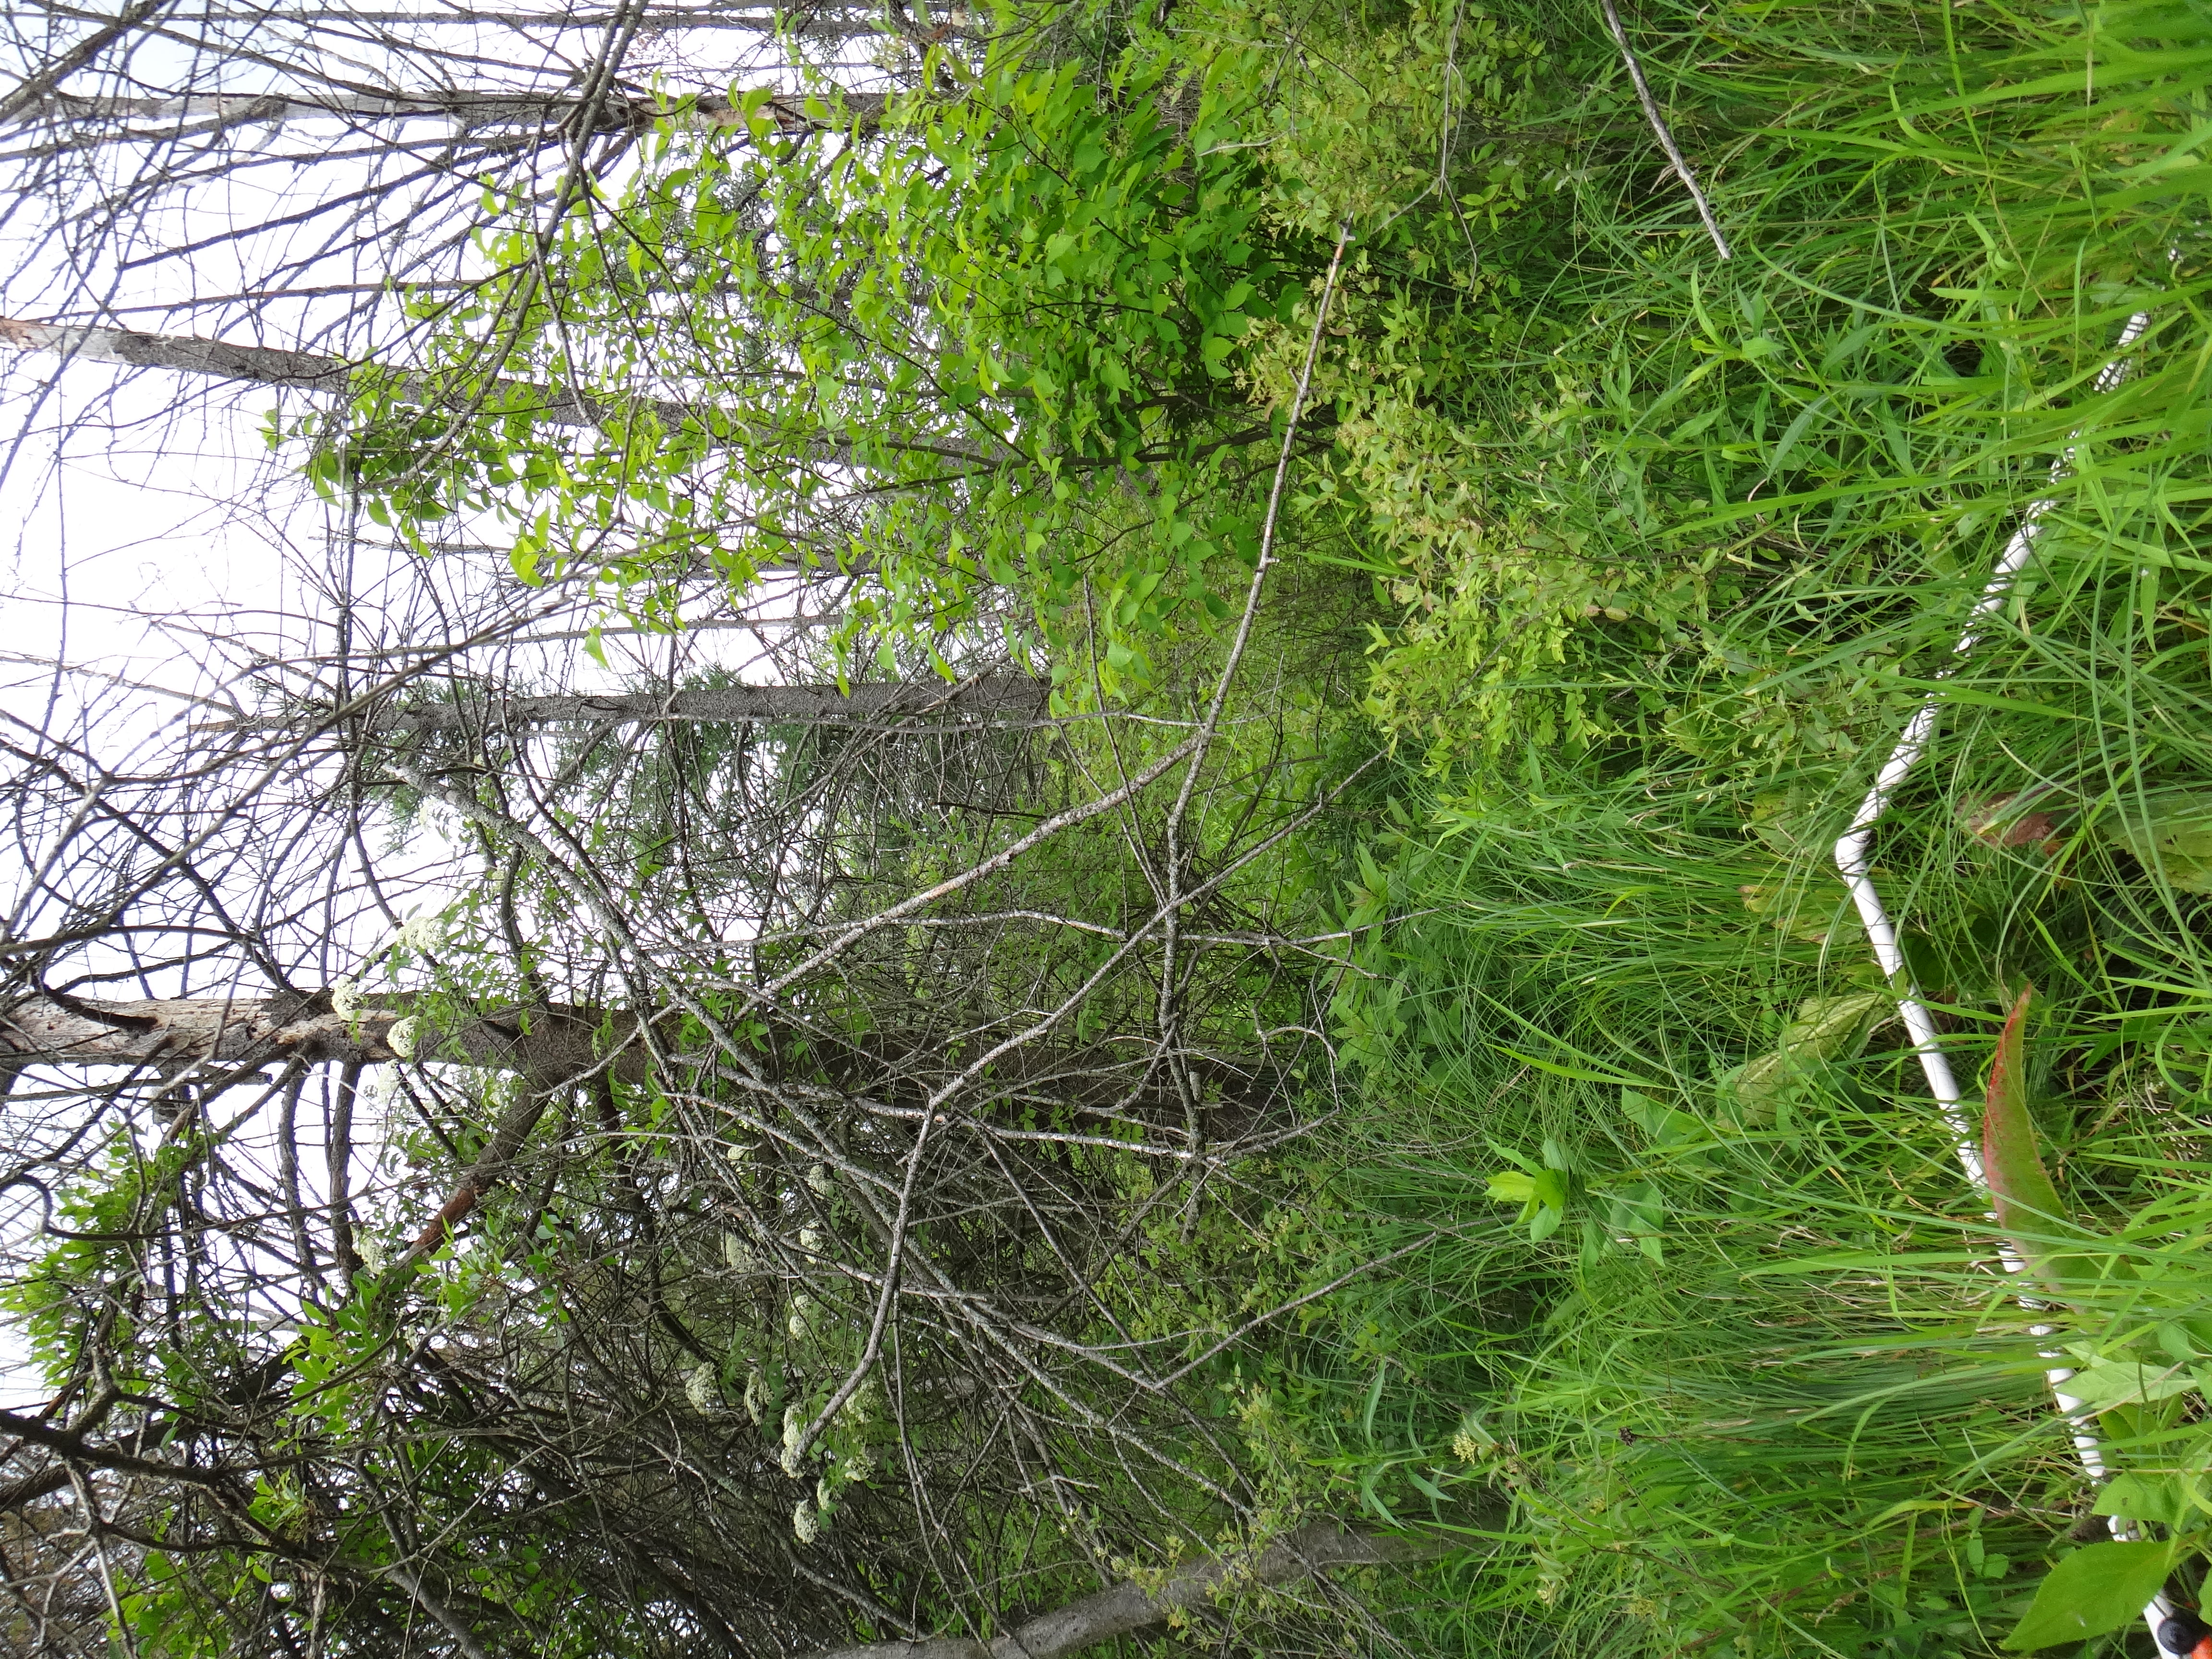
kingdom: Plantae
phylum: Tracheophyta
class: Magnoliopsida
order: Asterales
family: Asteraceae
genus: Symphyotrichum
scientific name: Symphyotrichum puniceum
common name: Bog aster
